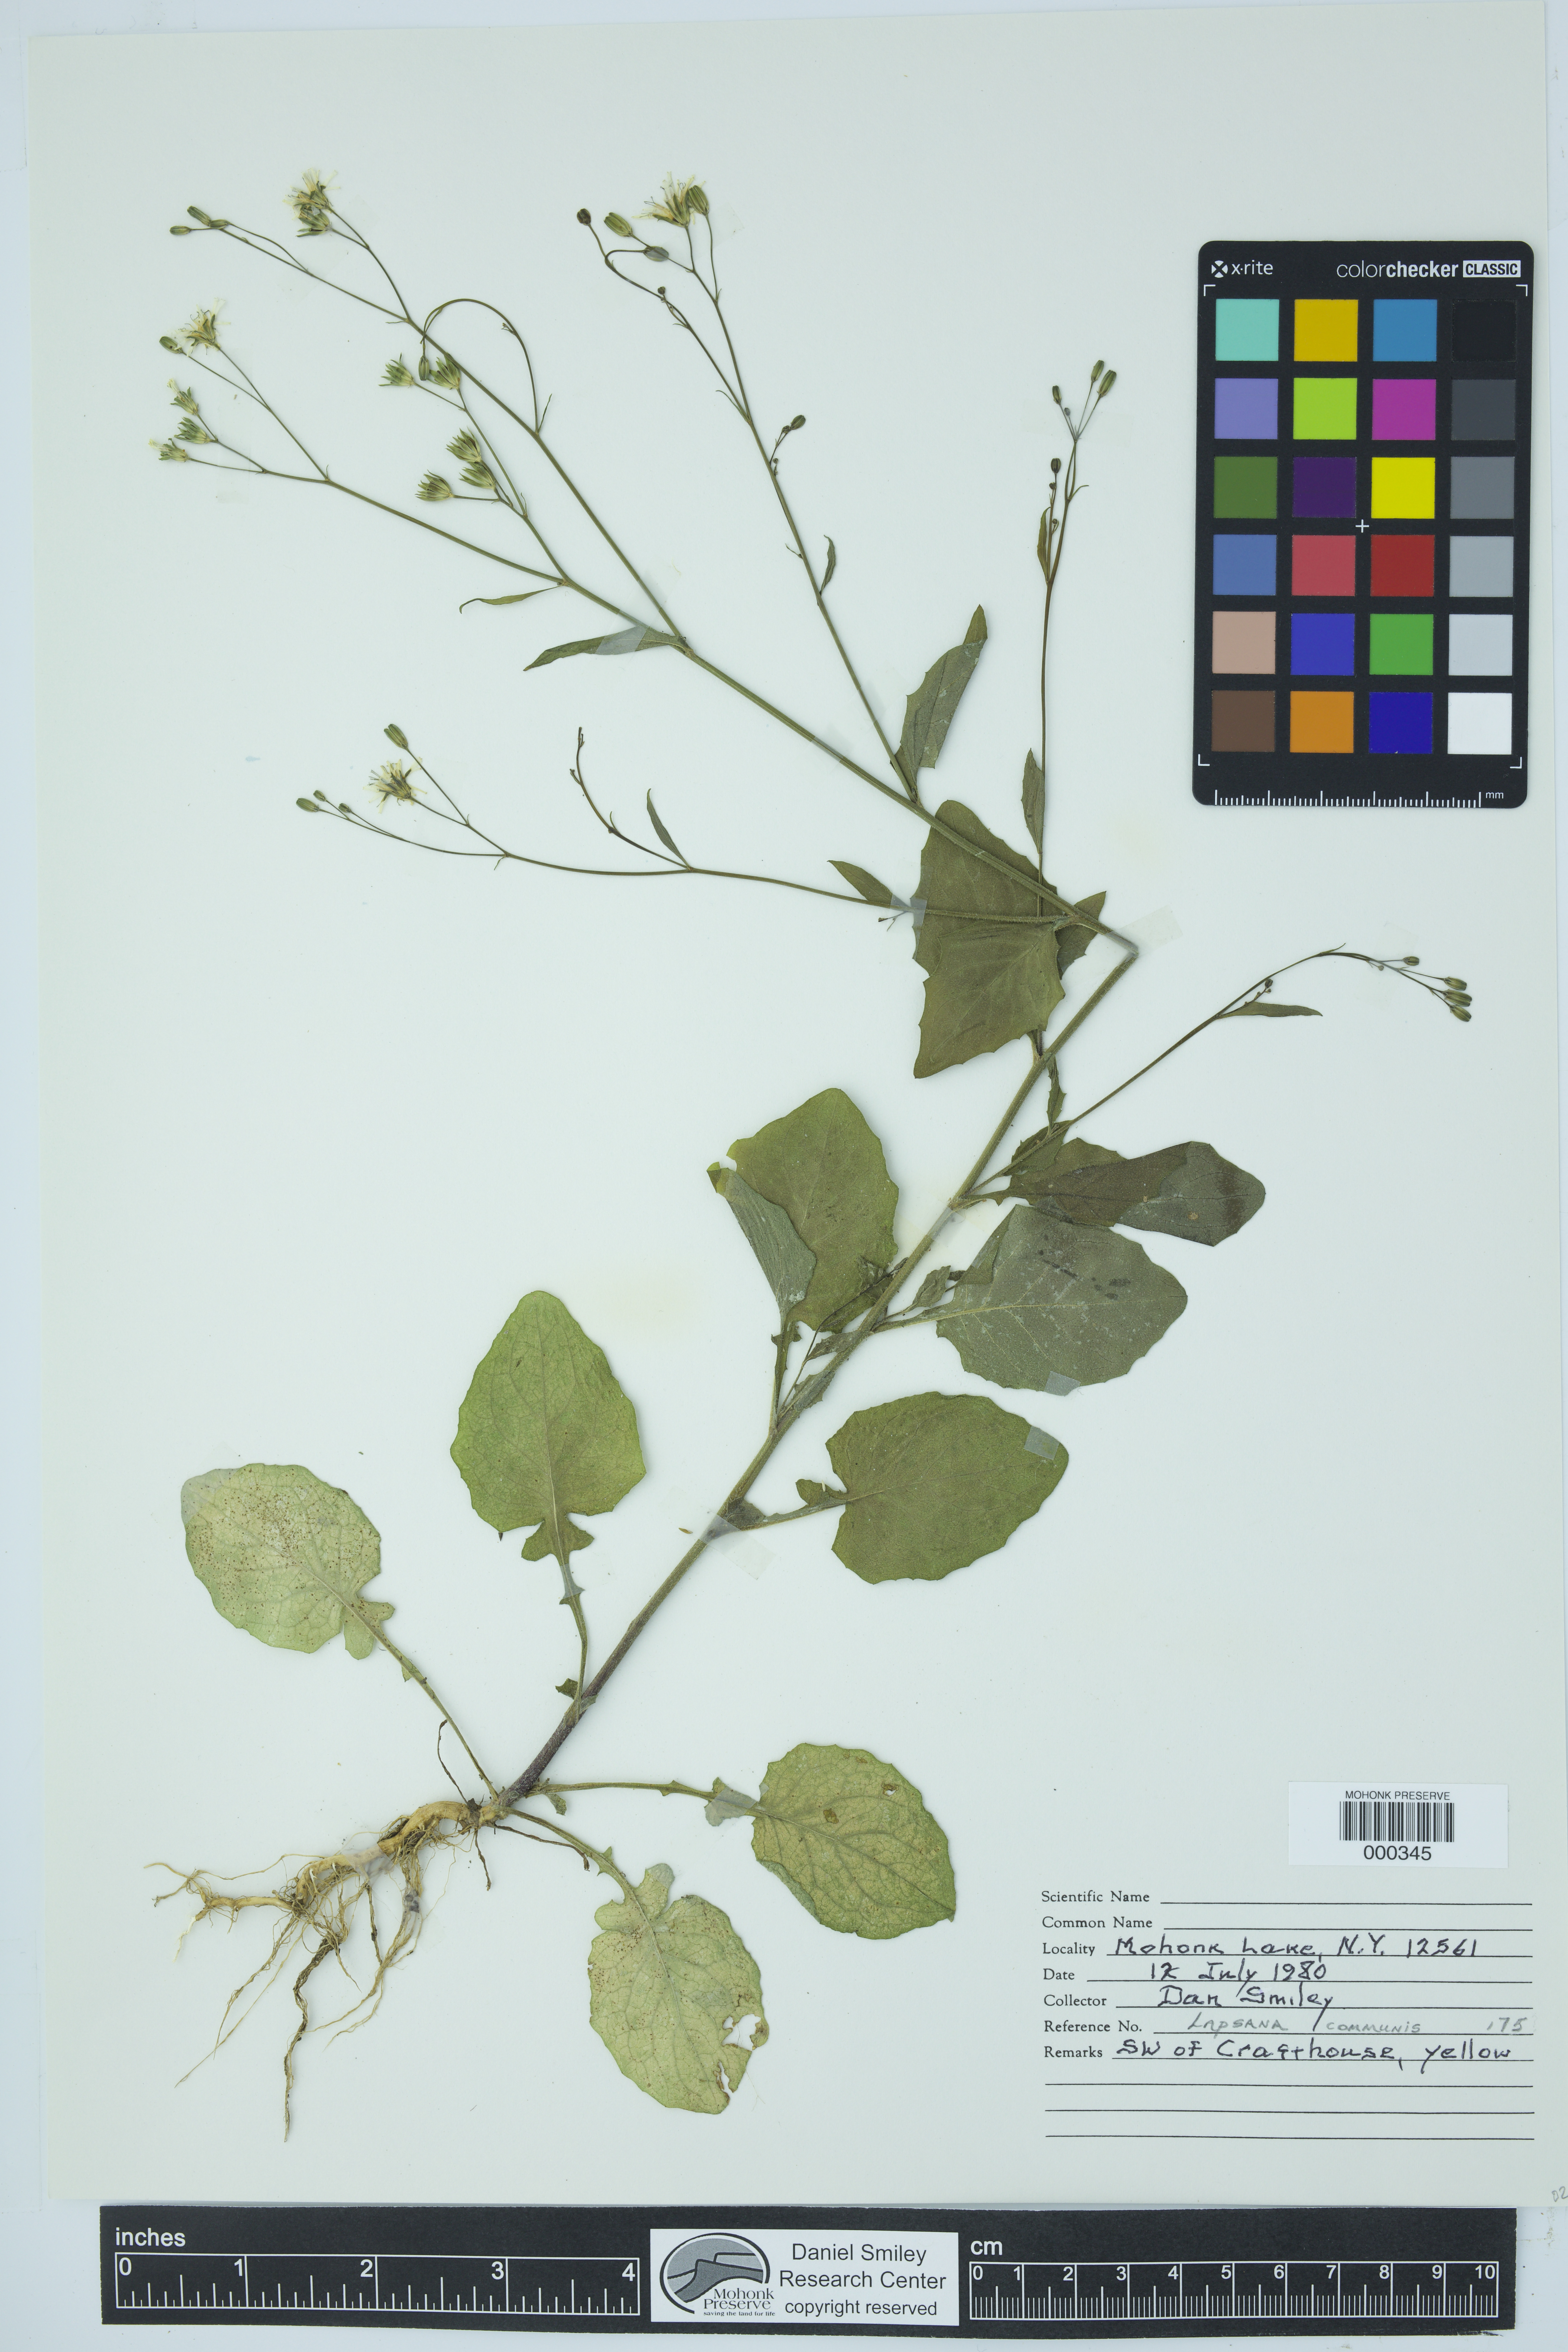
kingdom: Plantae
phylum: Tracheophyta
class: Magnoliopsida
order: Asterales
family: Asteraceae
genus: Lapsana
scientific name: Lapsana communis
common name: Nipplewort
